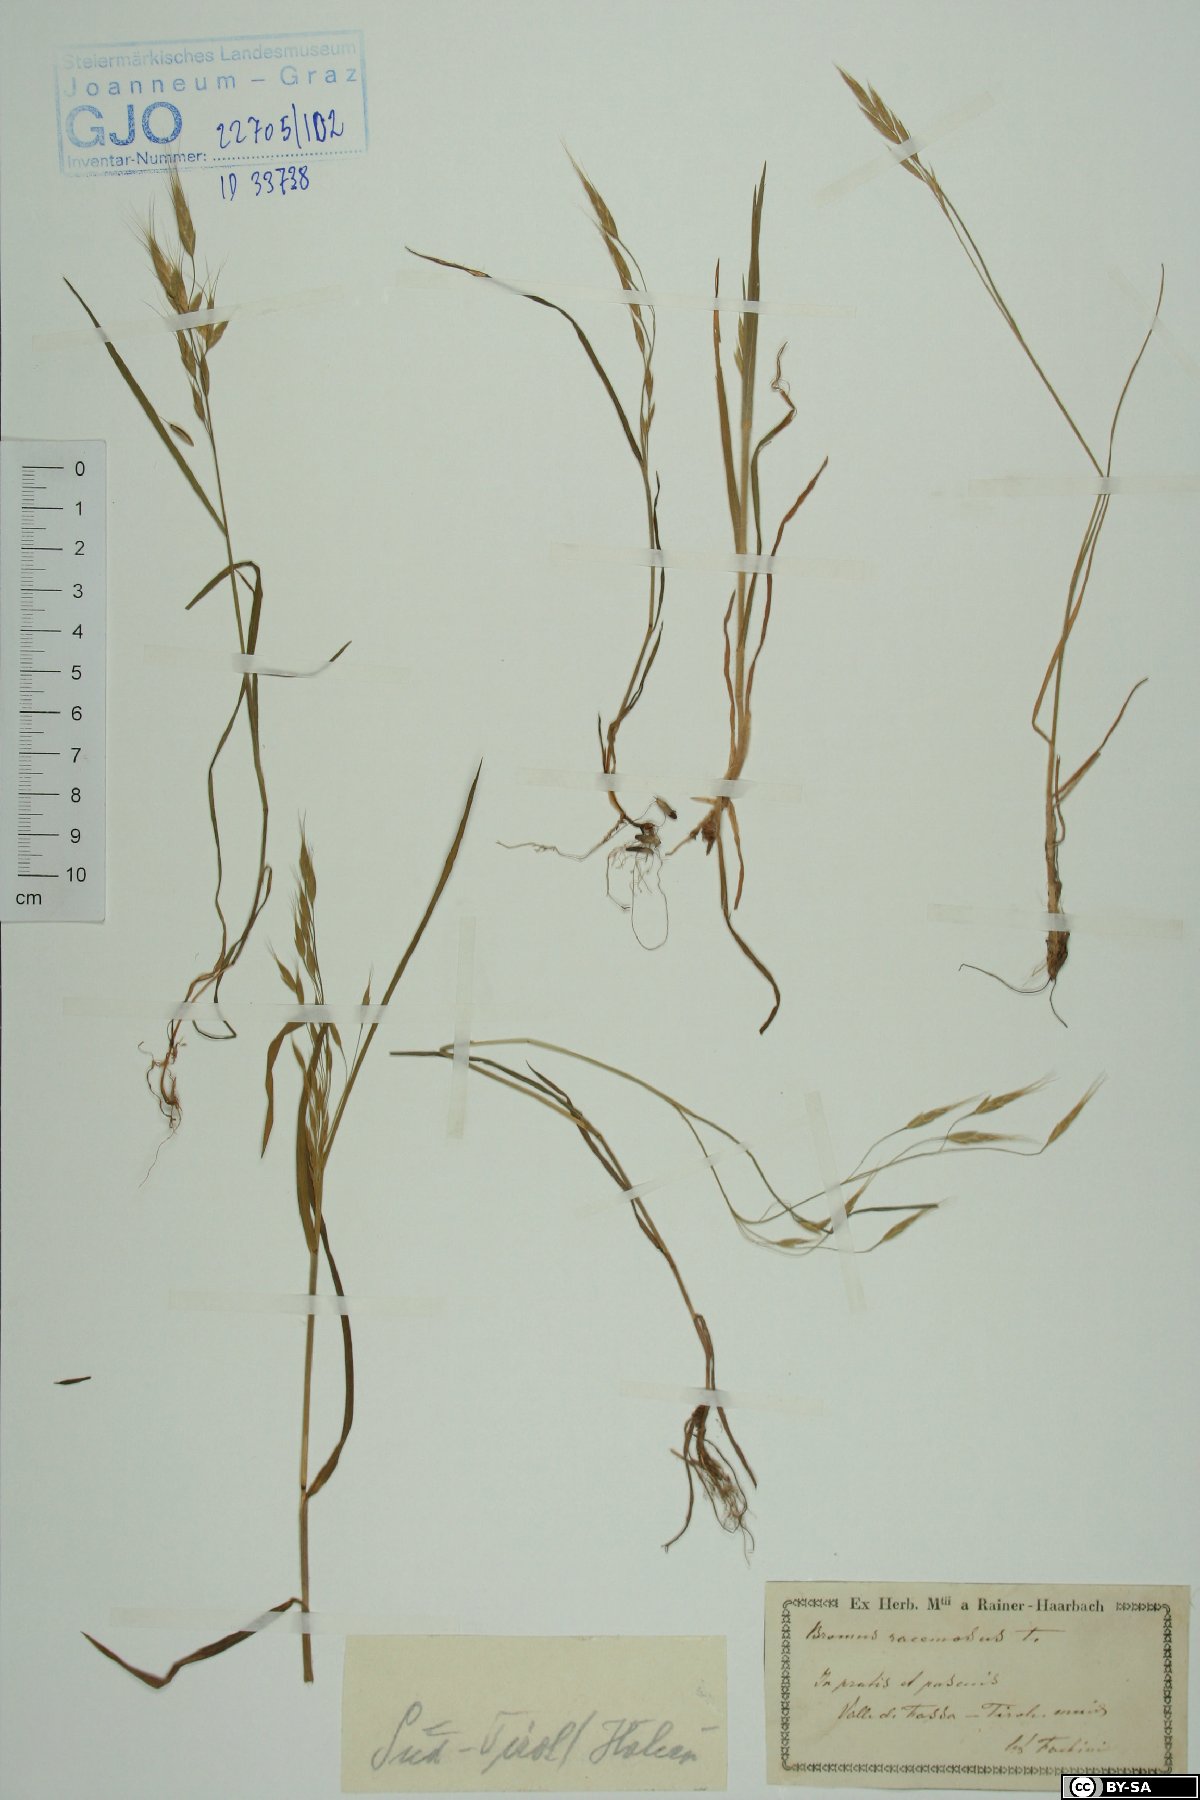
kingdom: Plantae
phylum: Tracheophyta
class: Liliopsida
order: Poales
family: Poaceae
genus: Bromus
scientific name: Bromus racemosus
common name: Bald brome
